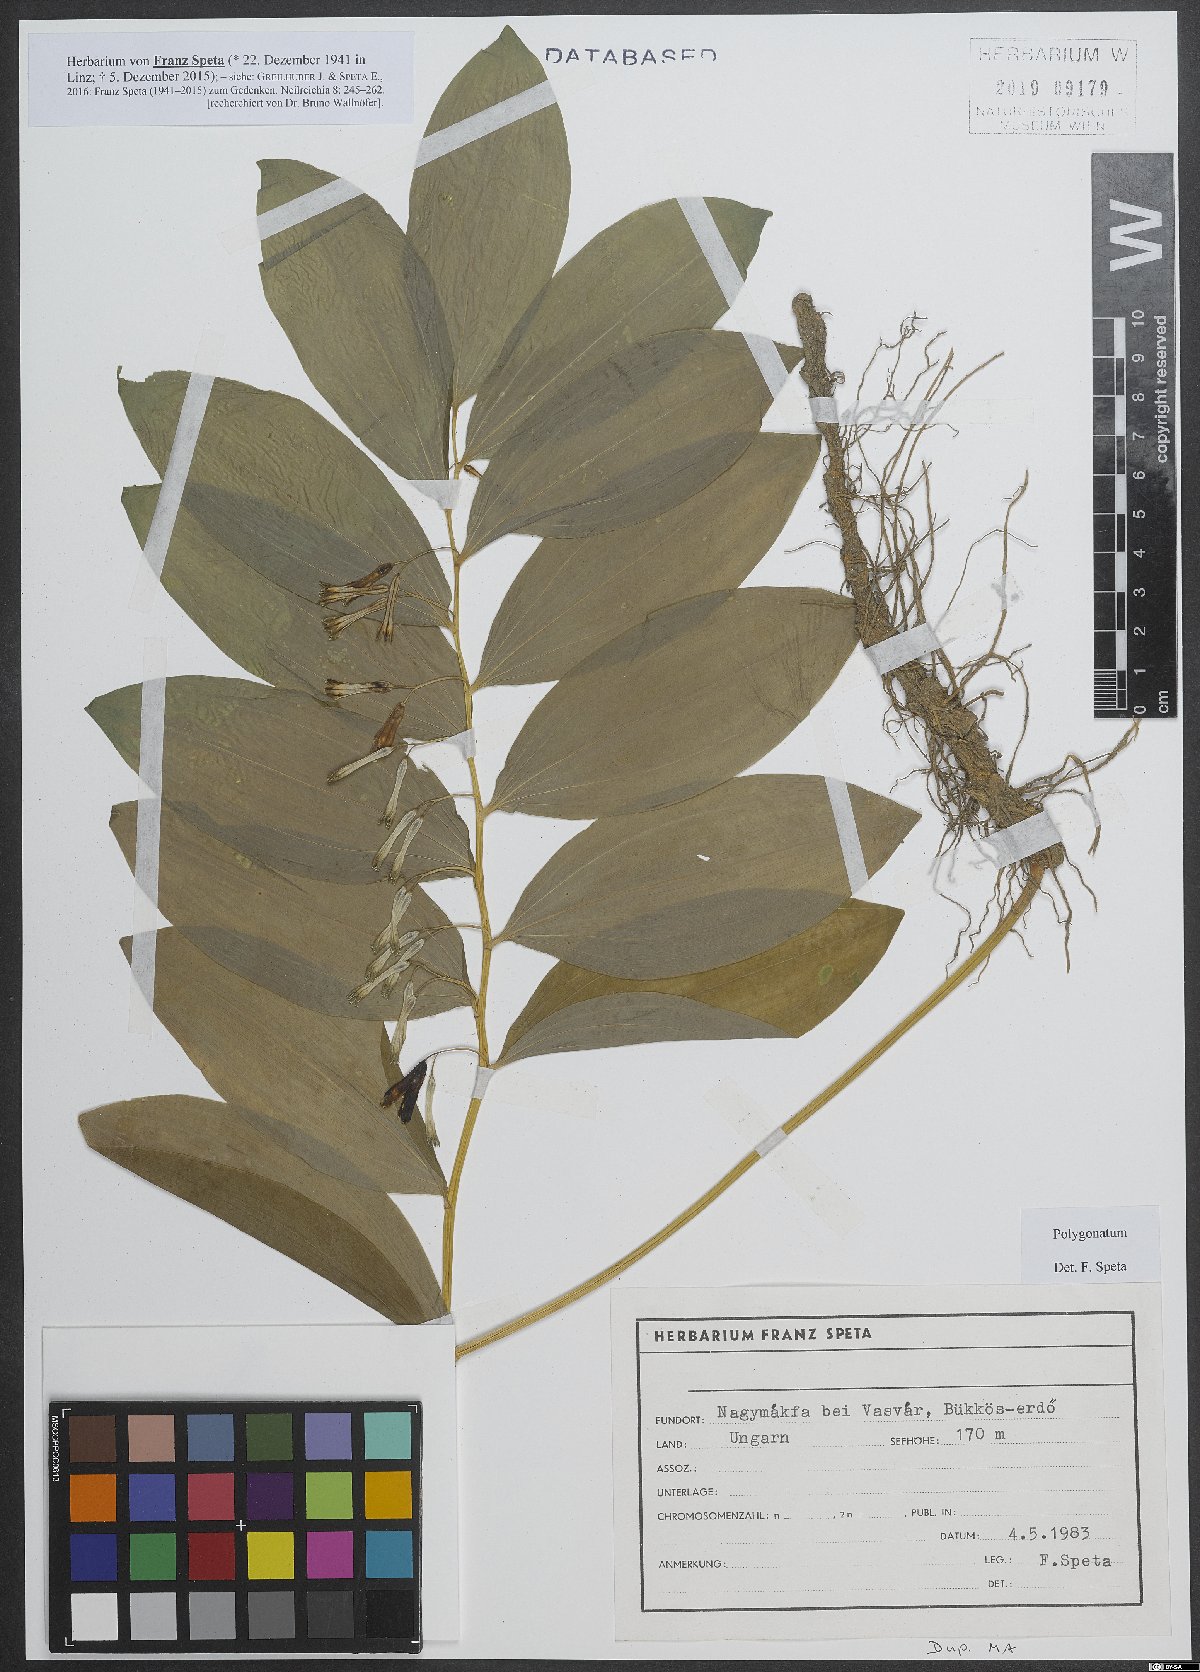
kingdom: Plantae
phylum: Tracheophyta
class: Liliopsida
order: Asparagales
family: Asparagaceae
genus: Polygonatum
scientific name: Polygonatum
